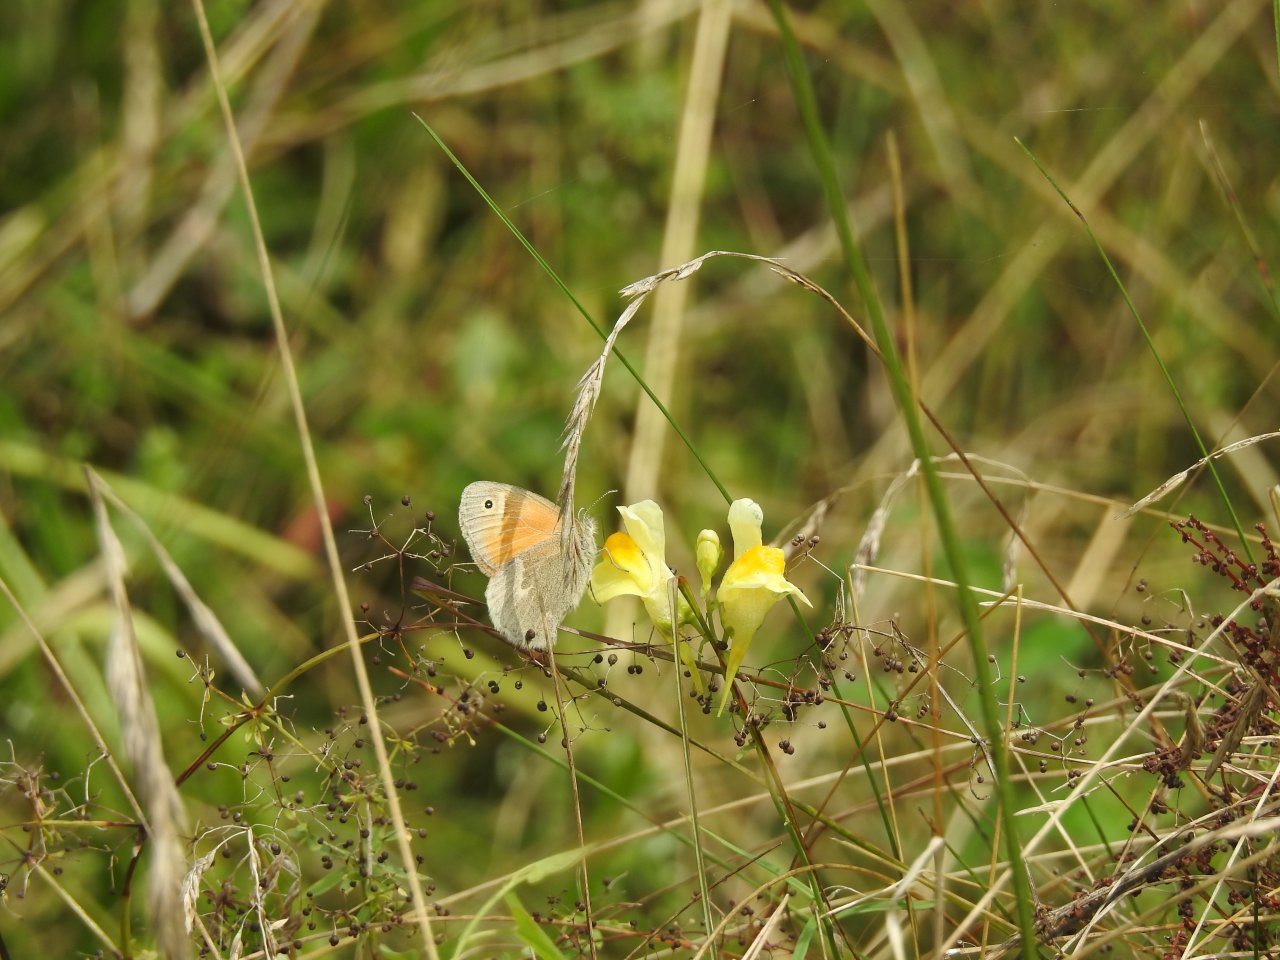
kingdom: Animalia
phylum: Arthropoda
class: Insecta
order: Lepidoptera
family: Nymphalidae
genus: Coenonympha
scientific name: Coenonympha tullia
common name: Large Heath
